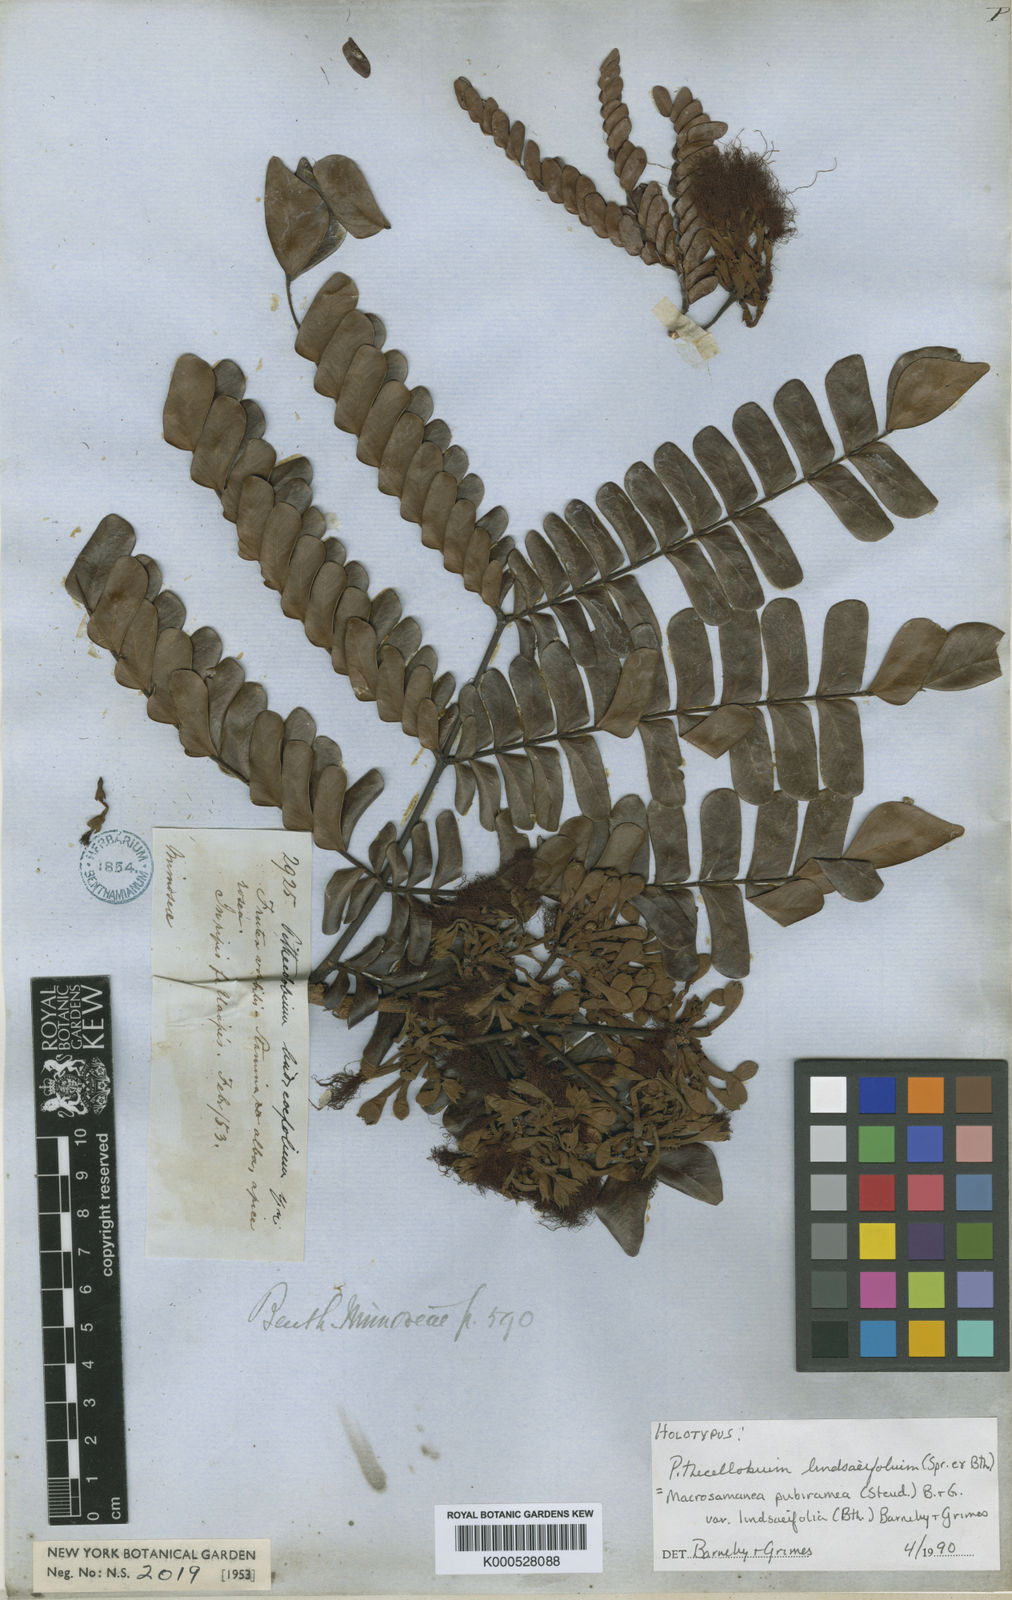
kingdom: Plantae
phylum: Tracheophyta
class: Magnoliopsida
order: Fabales
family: Fabaceae
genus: Macrosamanea
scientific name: Macrosamanea pubiramea
